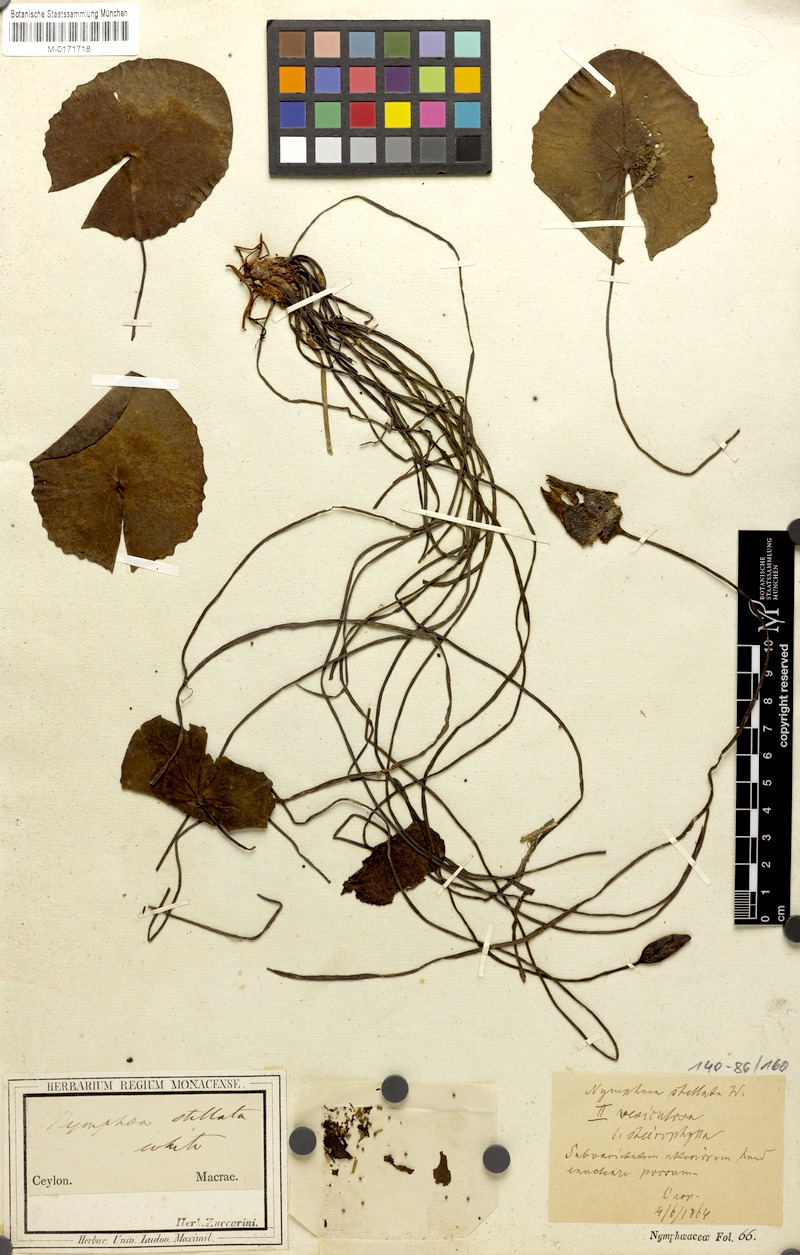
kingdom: Plantae
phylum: Tracheophyta
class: Magnoliopsida
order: Nymphaeales
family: Nymphaeaceae
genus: Nymphaea
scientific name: Nymphaea nouchali
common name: Blue lotus
